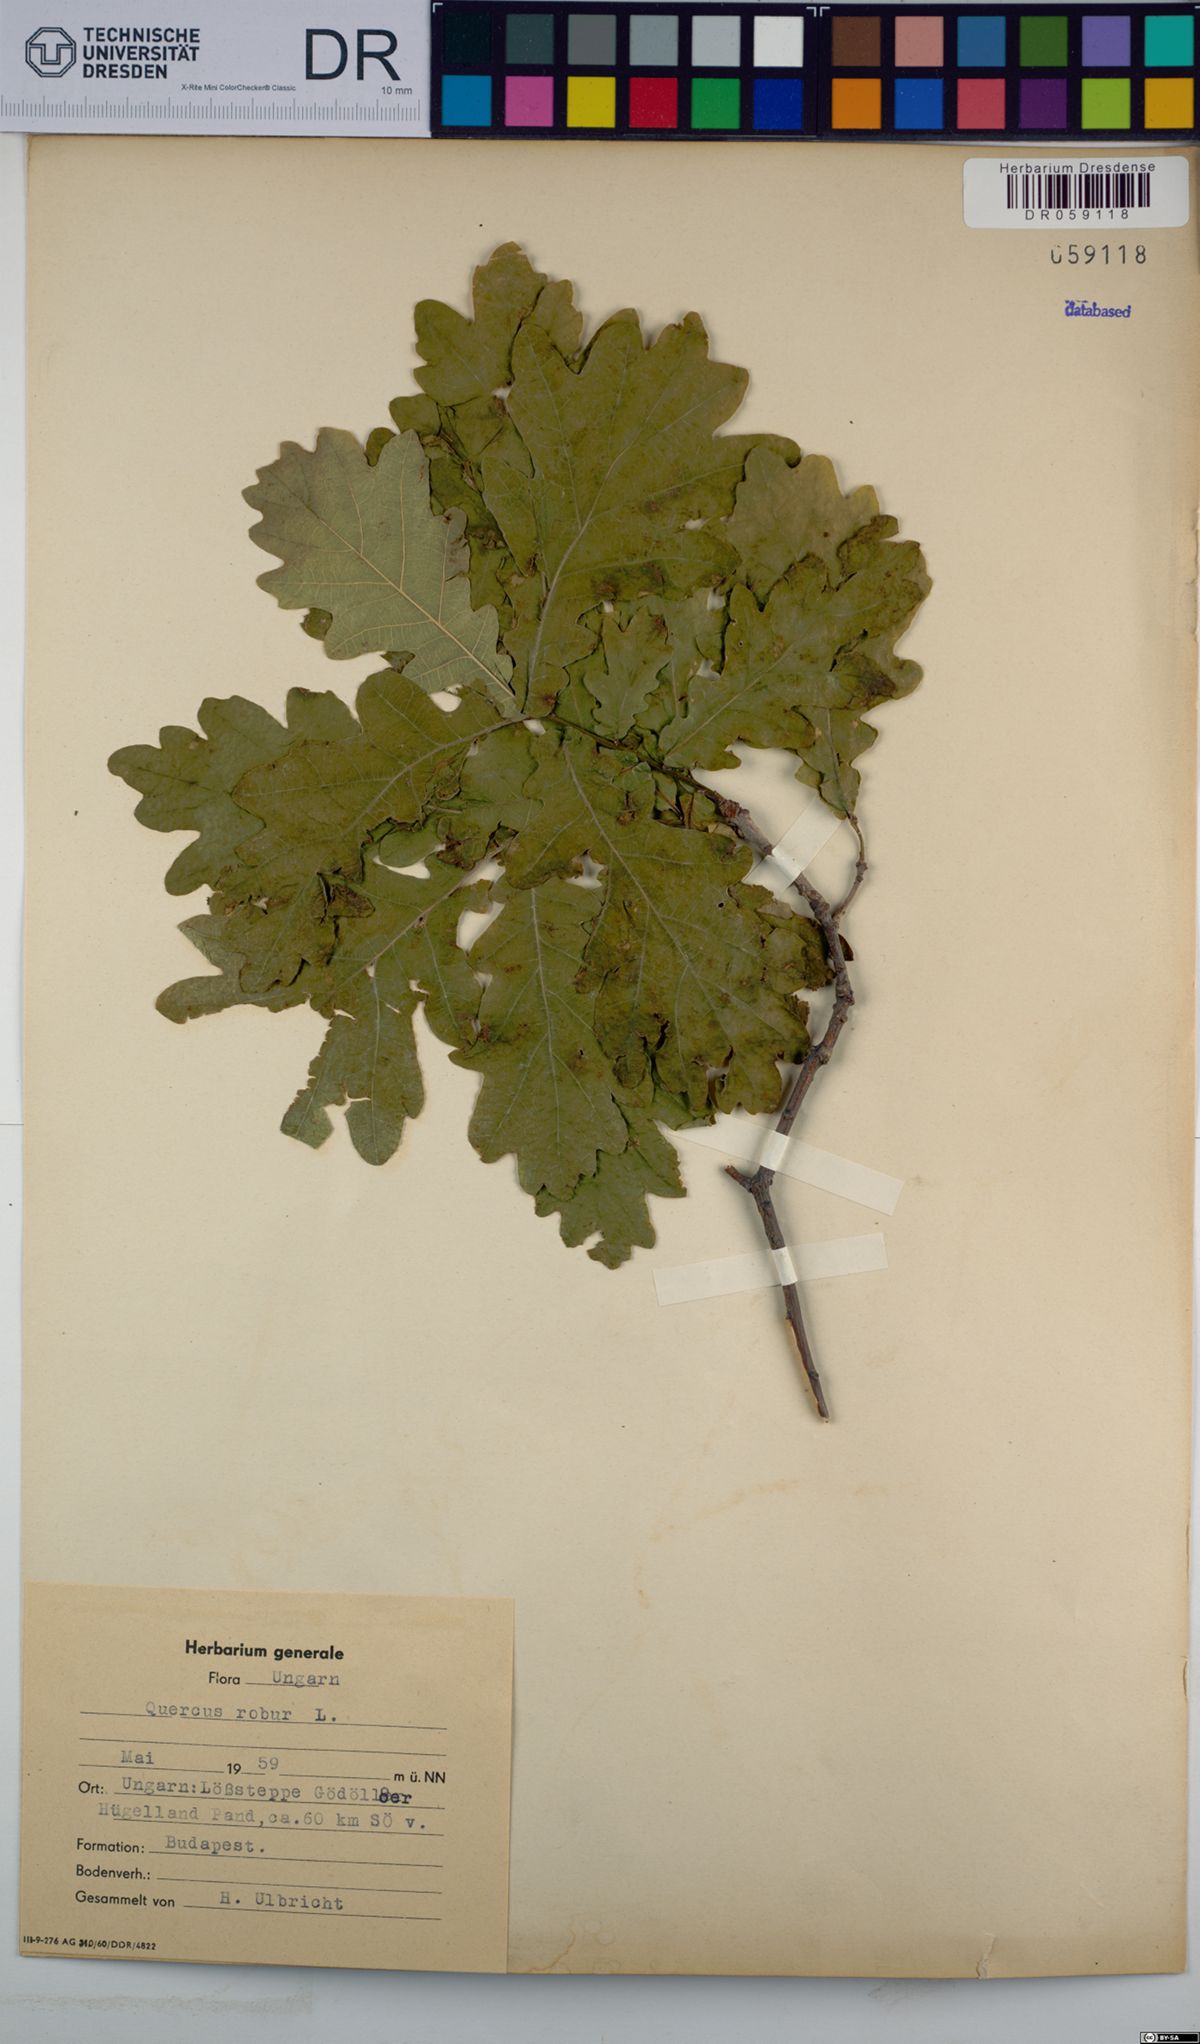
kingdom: Plantae
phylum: Tracheophyta
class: Magnoliopsida
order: Fagales
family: Fagaceae
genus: Quercus
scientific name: Quercus robur
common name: Pedunculate oak
